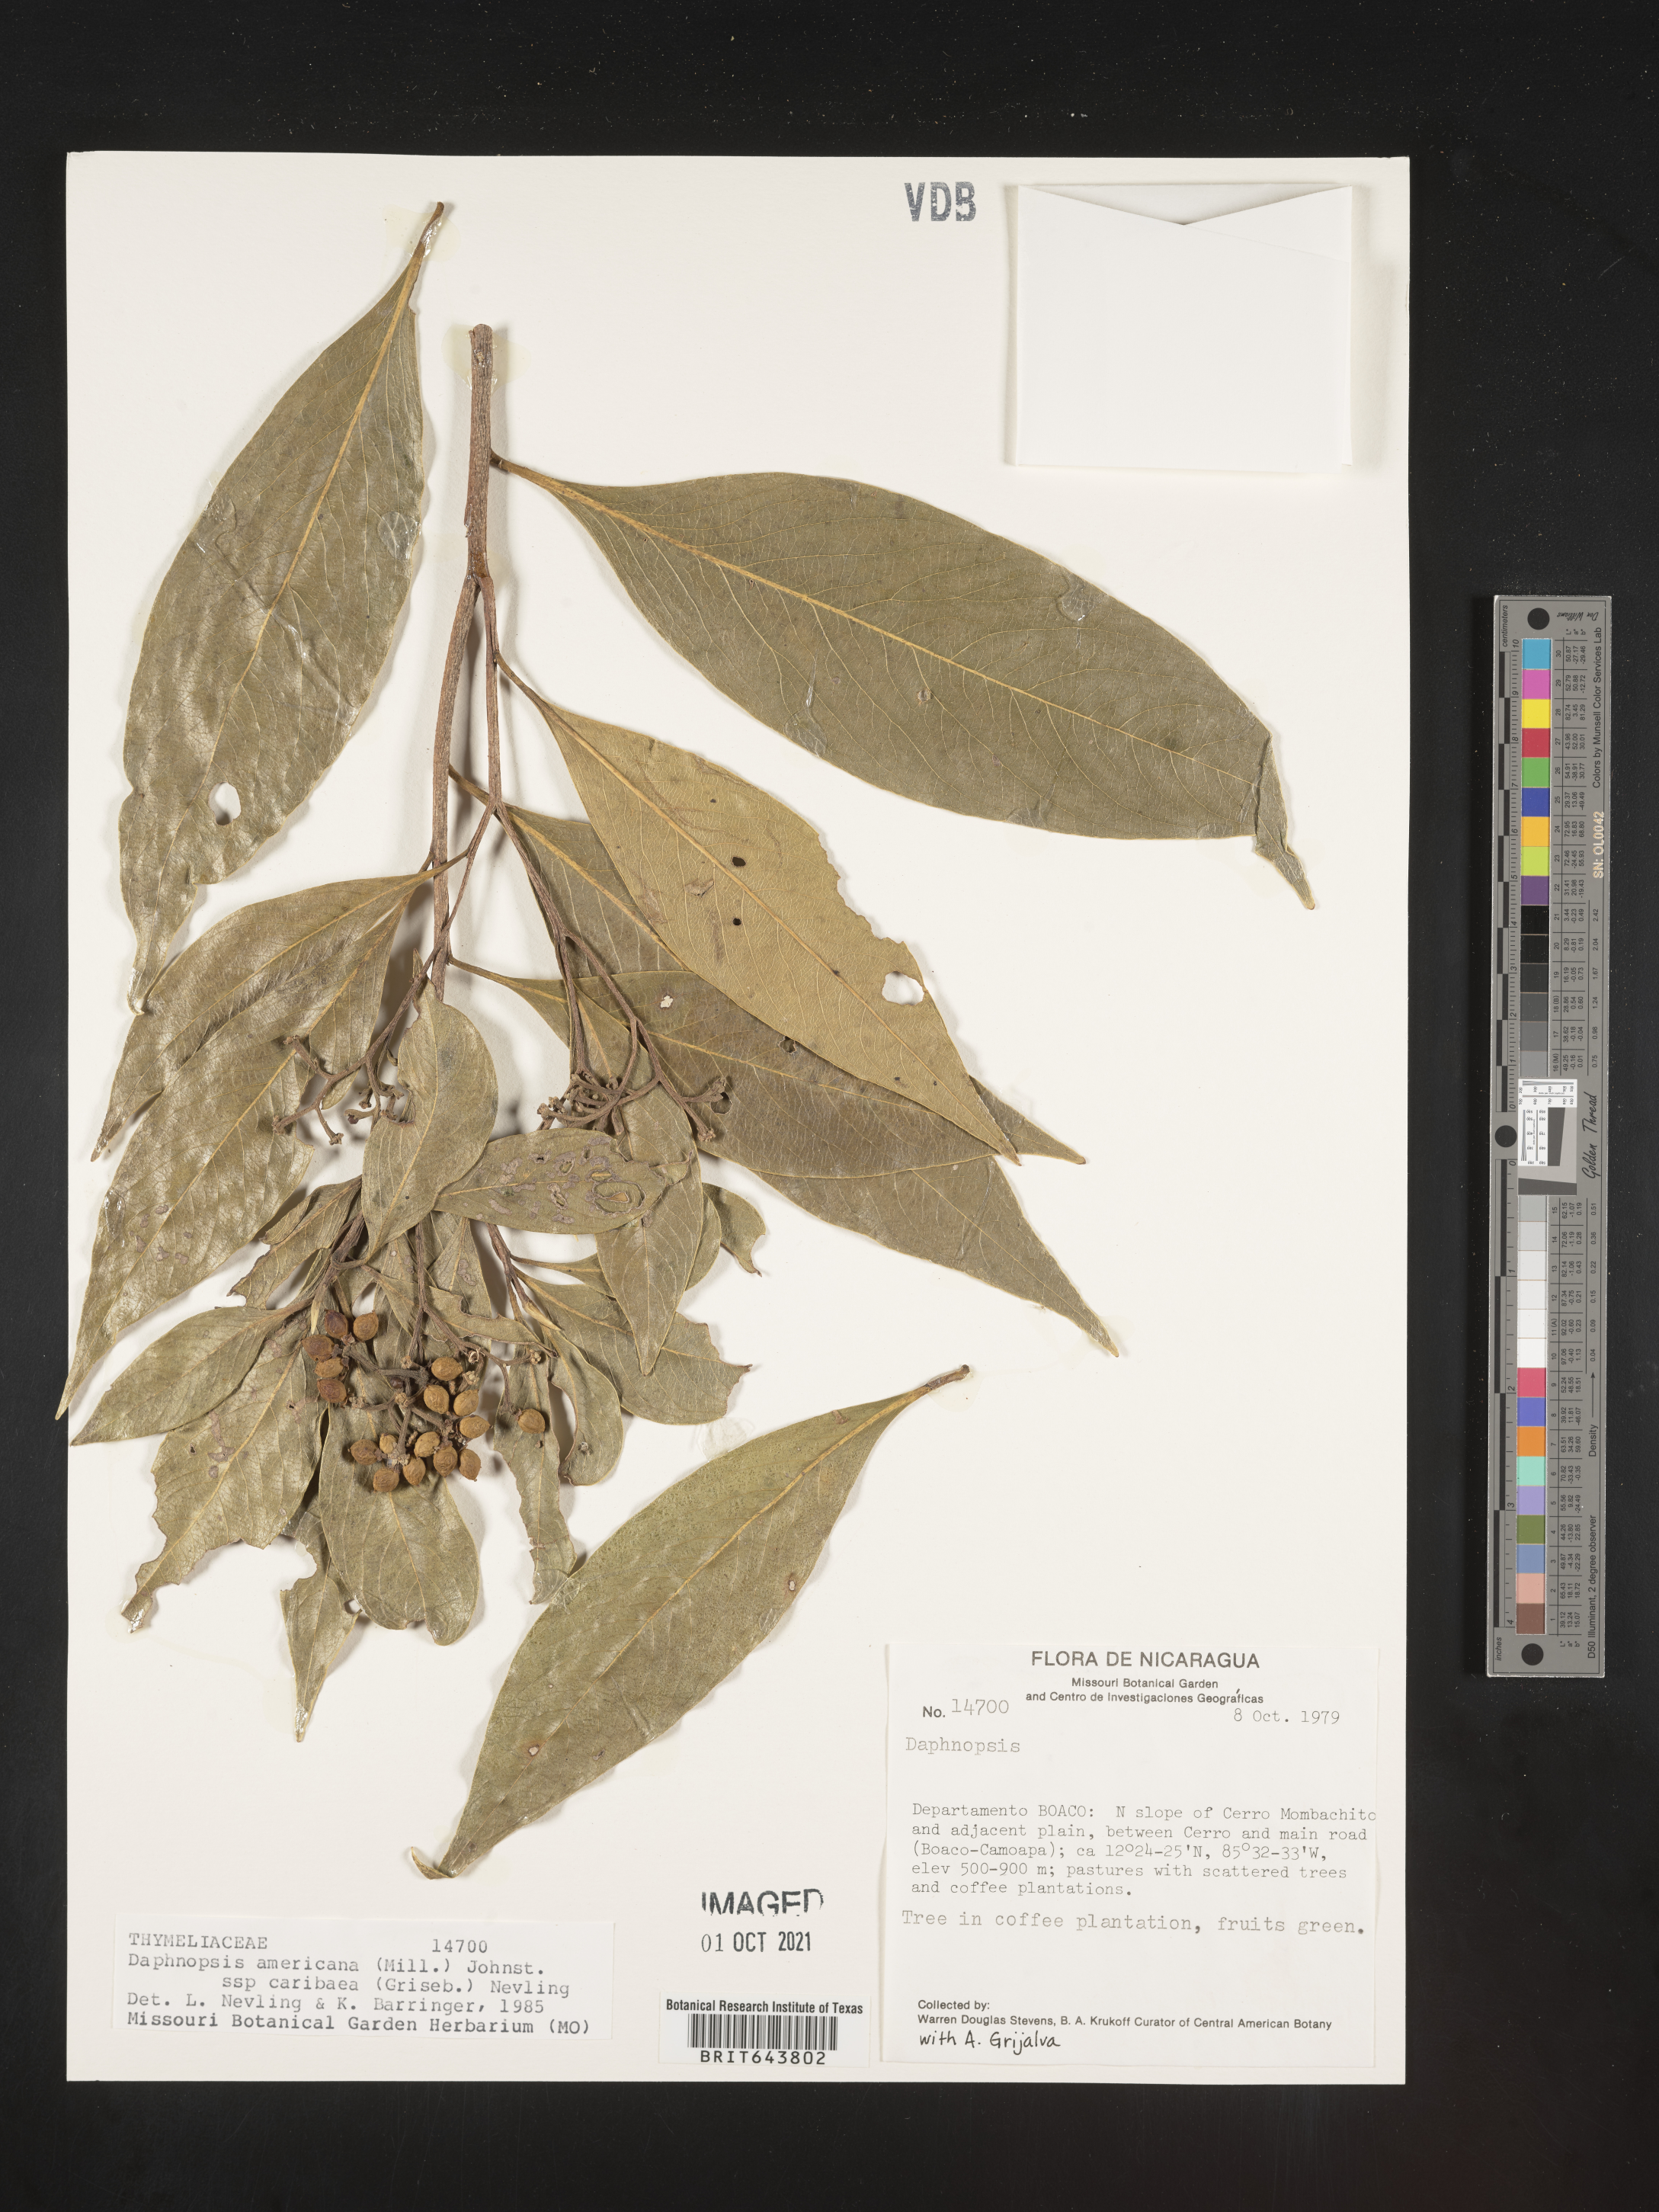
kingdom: Plantae
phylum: Tracheophyta
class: Magnoliopsida
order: Malvales
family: Thymelaeaceae
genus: Daphnopsis
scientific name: Daphnopsis
